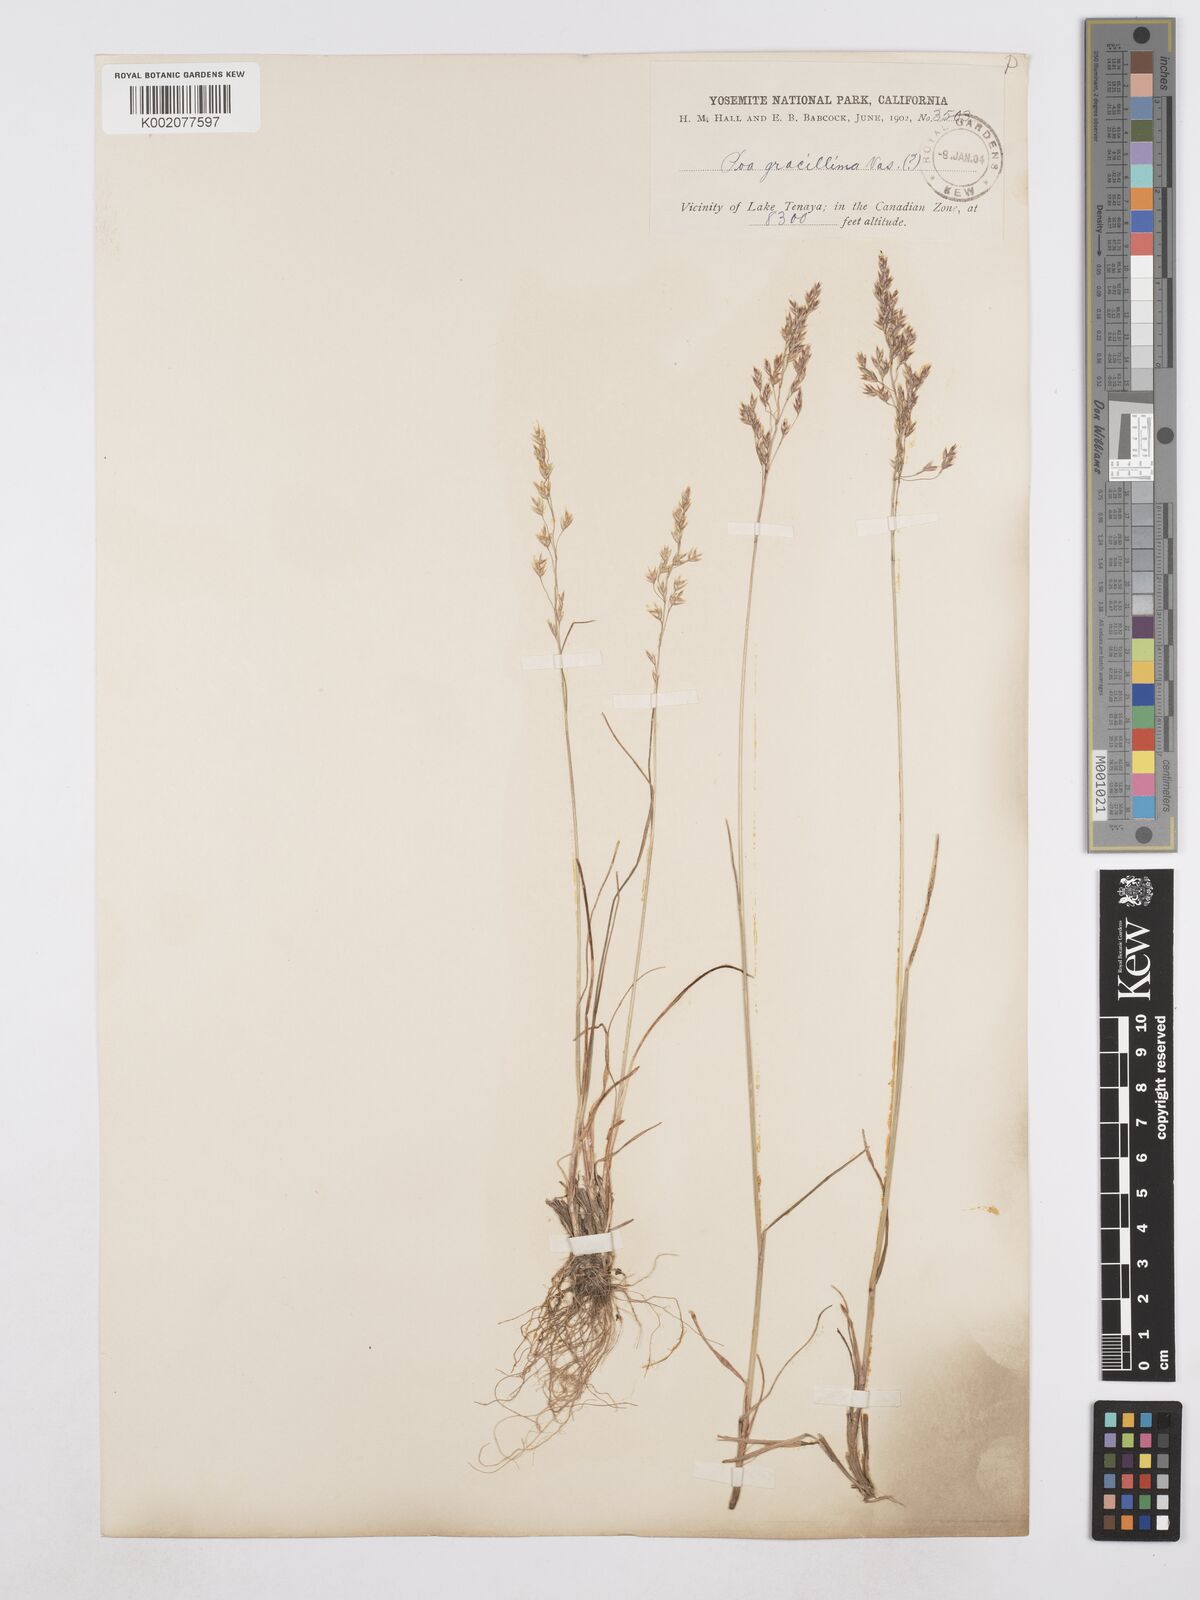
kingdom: Plantae
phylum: Tracheophyta
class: Liliopsida
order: Poales
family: Poaceae
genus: Poa
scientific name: Poa secunda
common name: Sandberg bluegrass
